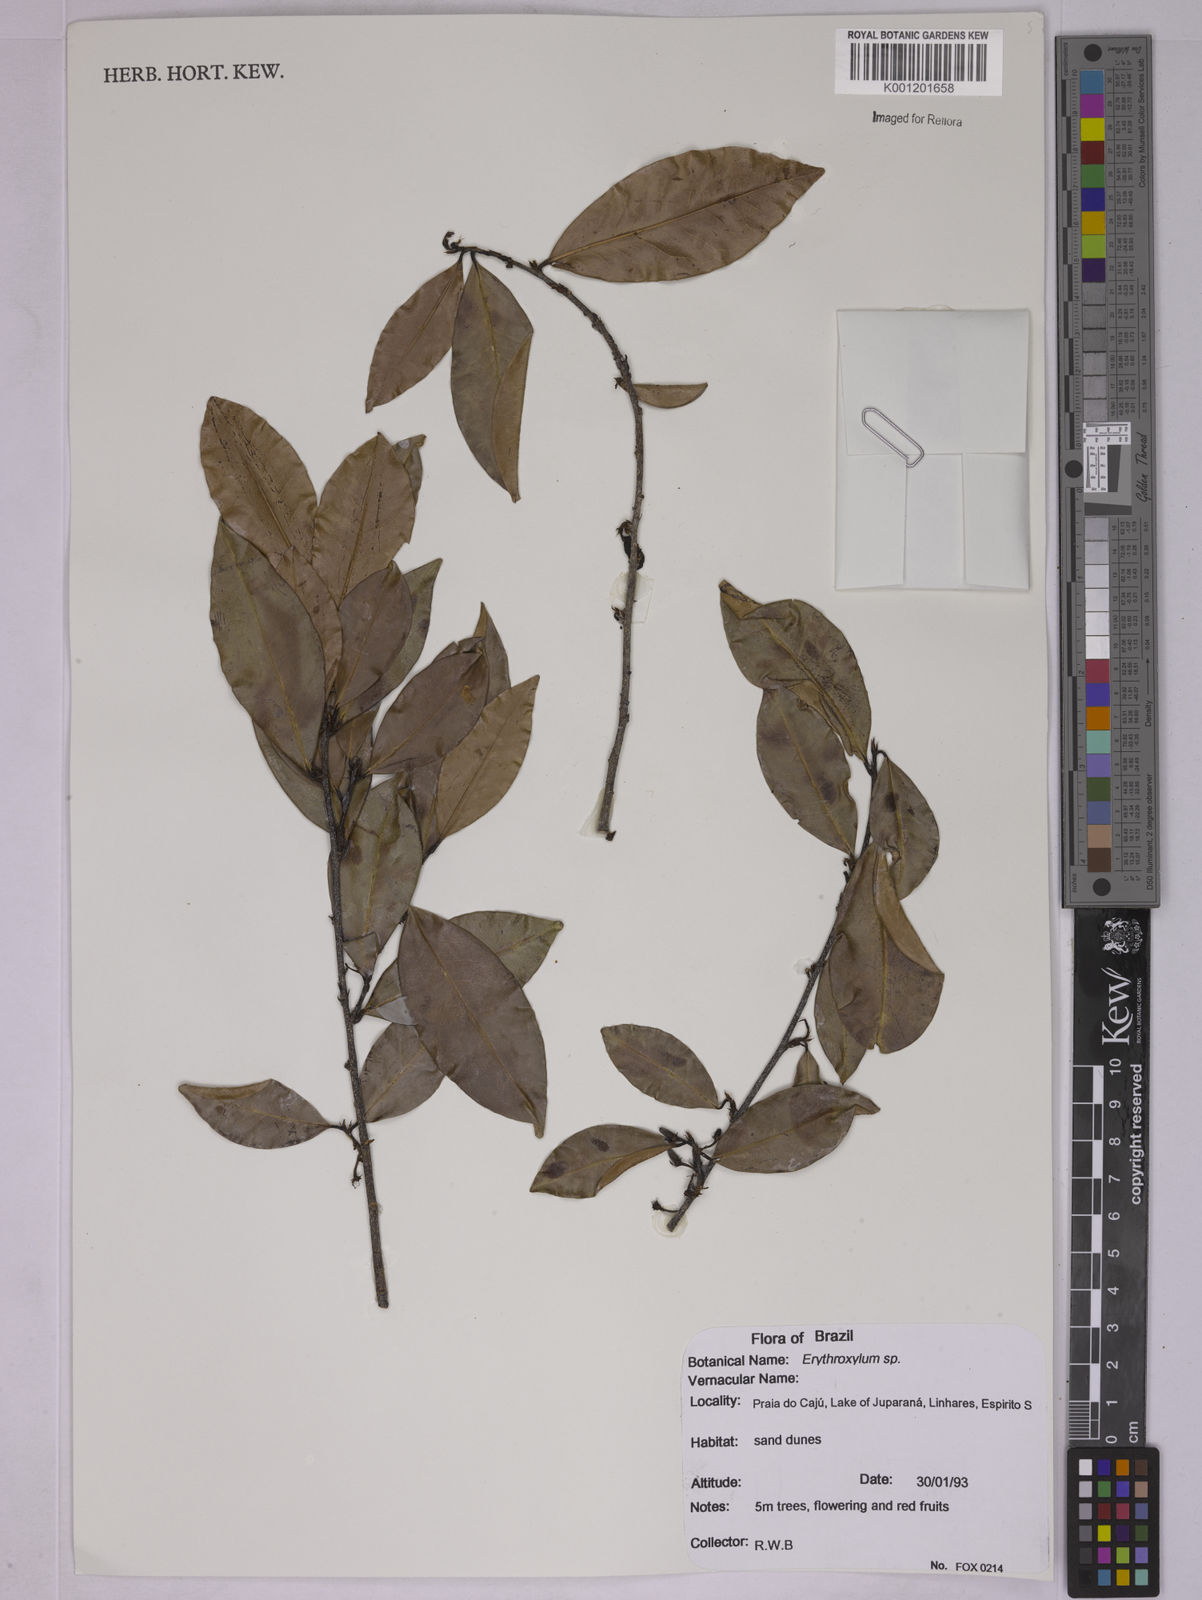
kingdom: Plantae
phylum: Tracheophyta
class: Magnoliopsida
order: Malpighiales
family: Erythroxylaceae
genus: Erythroxylum
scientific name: Erythroxylum
